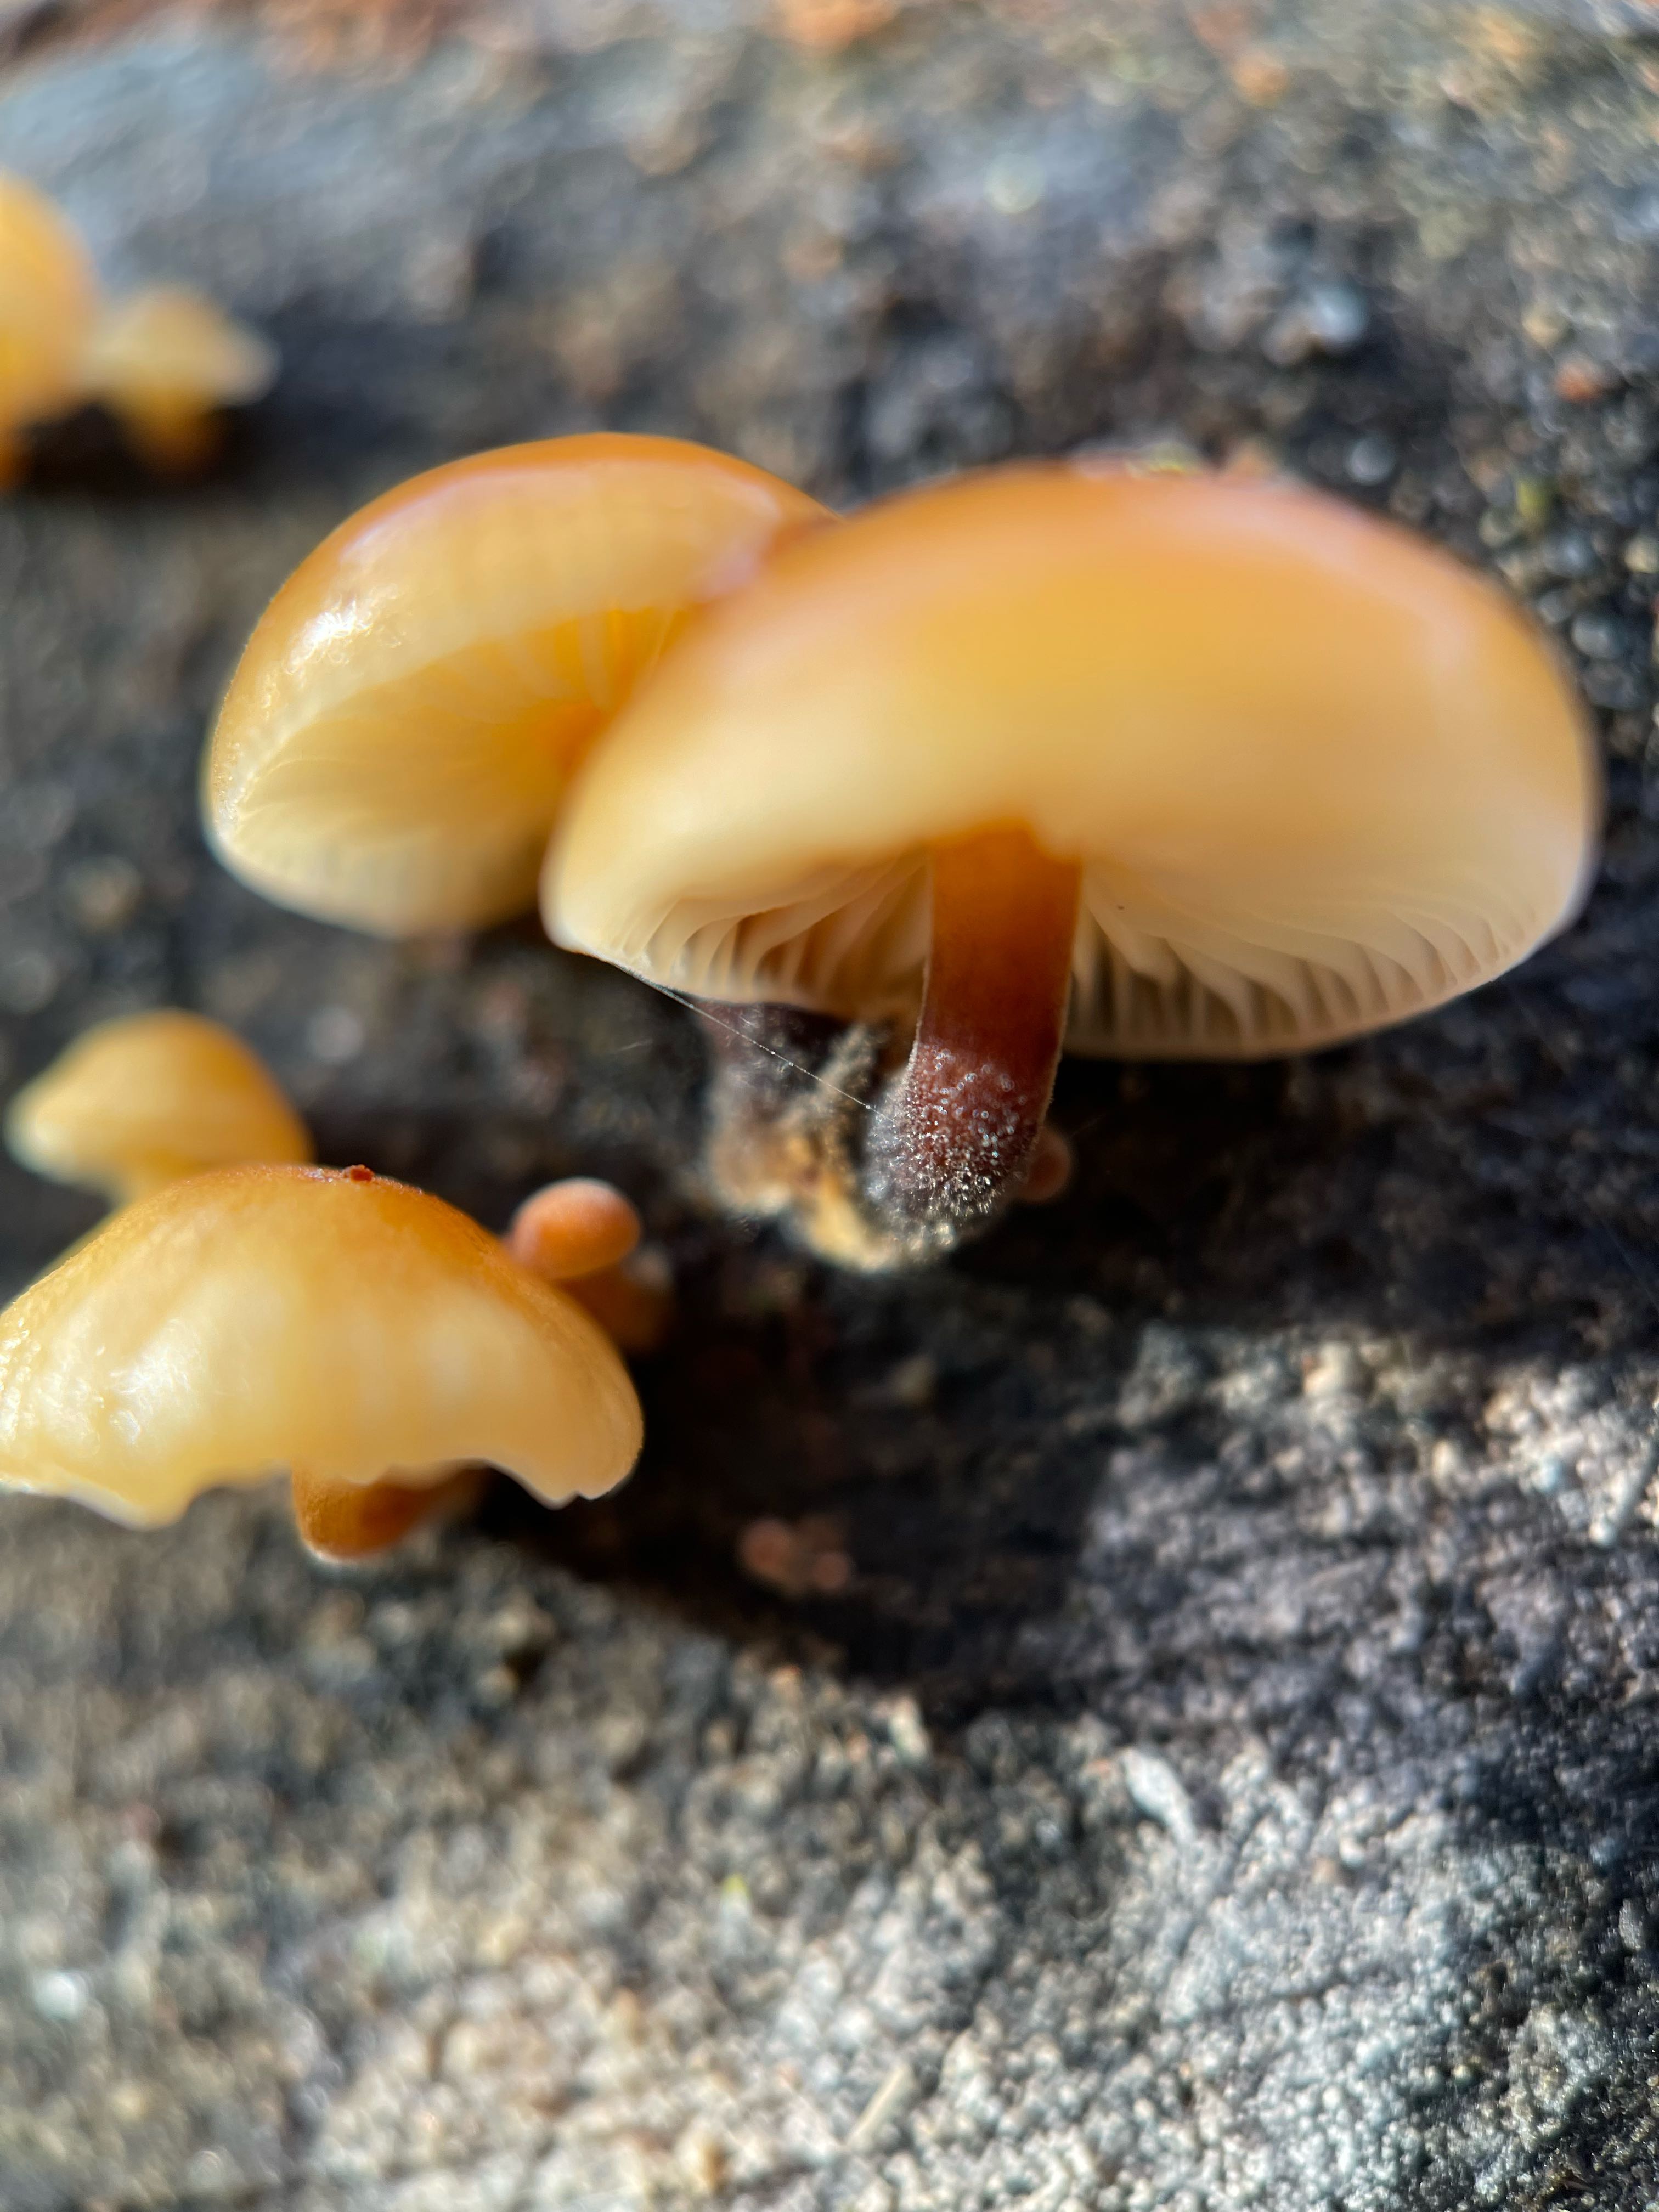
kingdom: Fungi
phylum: Basidiomycota
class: Agaricomycetes
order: Agaricales
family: Physalacriaceae
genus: Flammulina
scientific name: Flammulina
